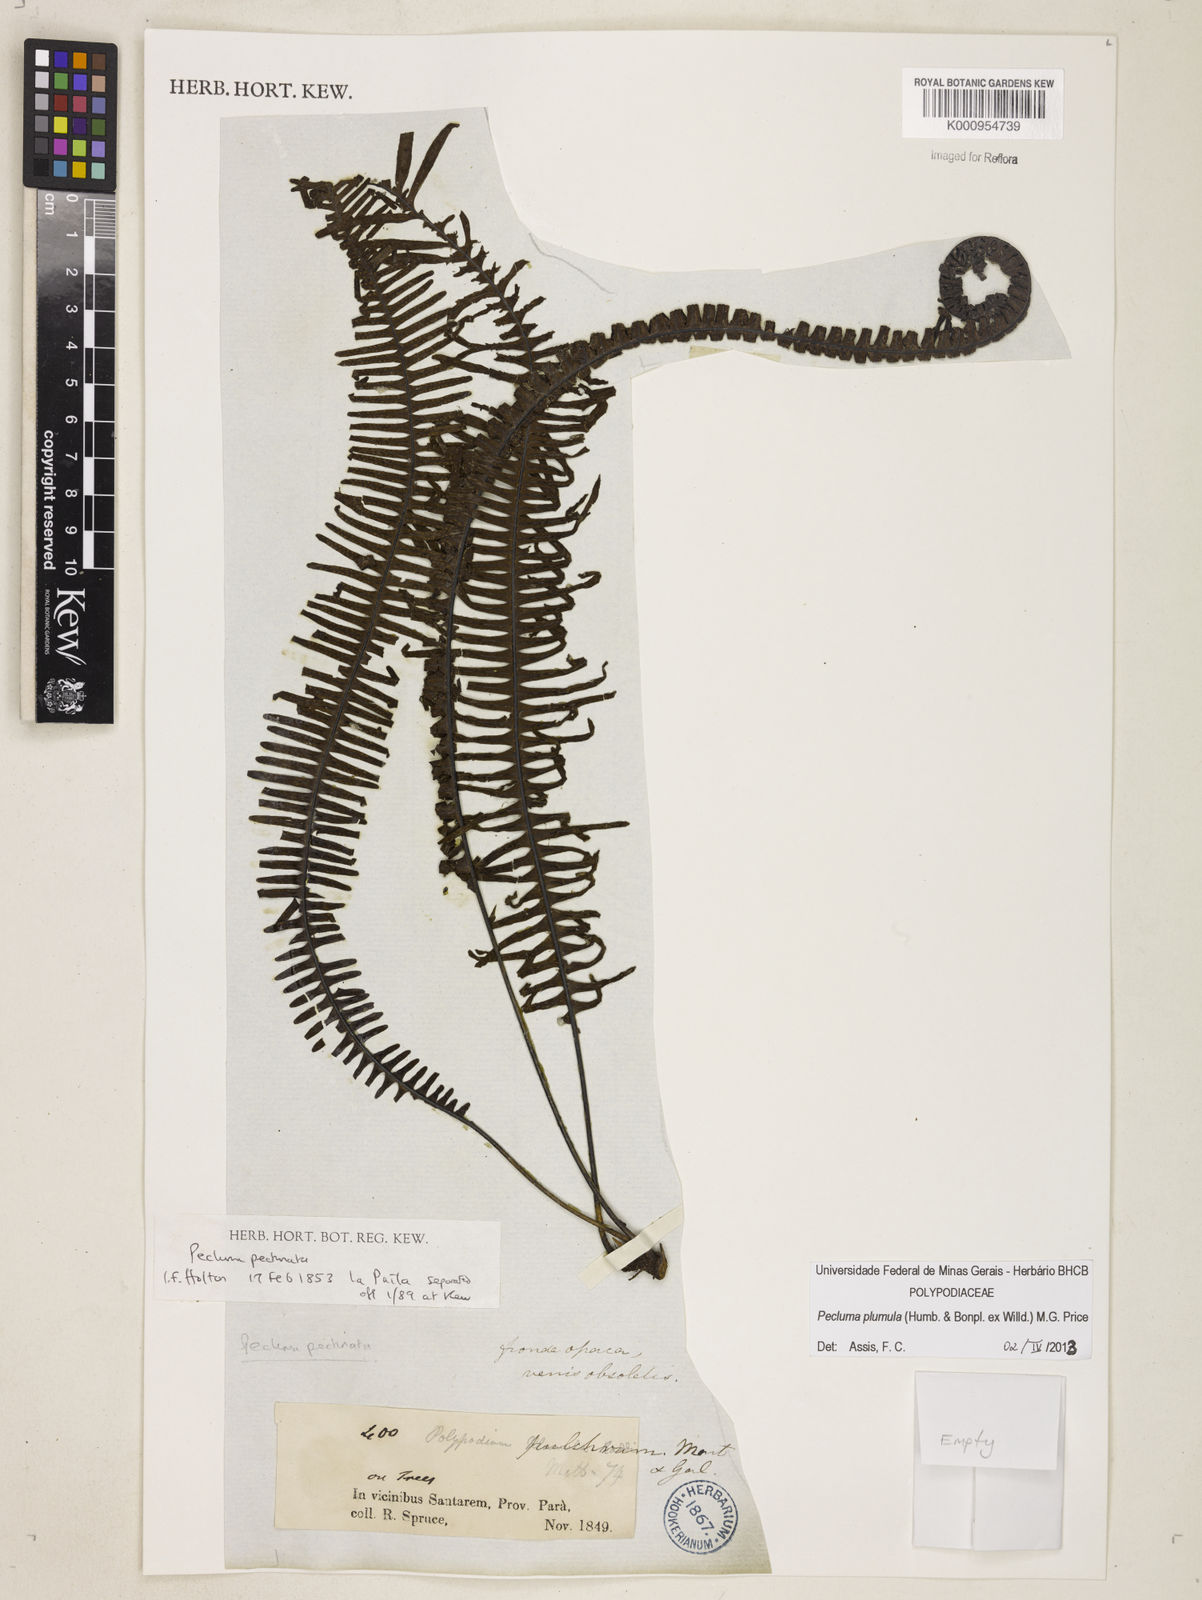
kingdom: Plantae
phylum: Tracheophyta
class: Polypodiopsida
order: Polypodiales
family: Polypodiaceae
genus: Pecluma
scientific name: Pecluma plumula
